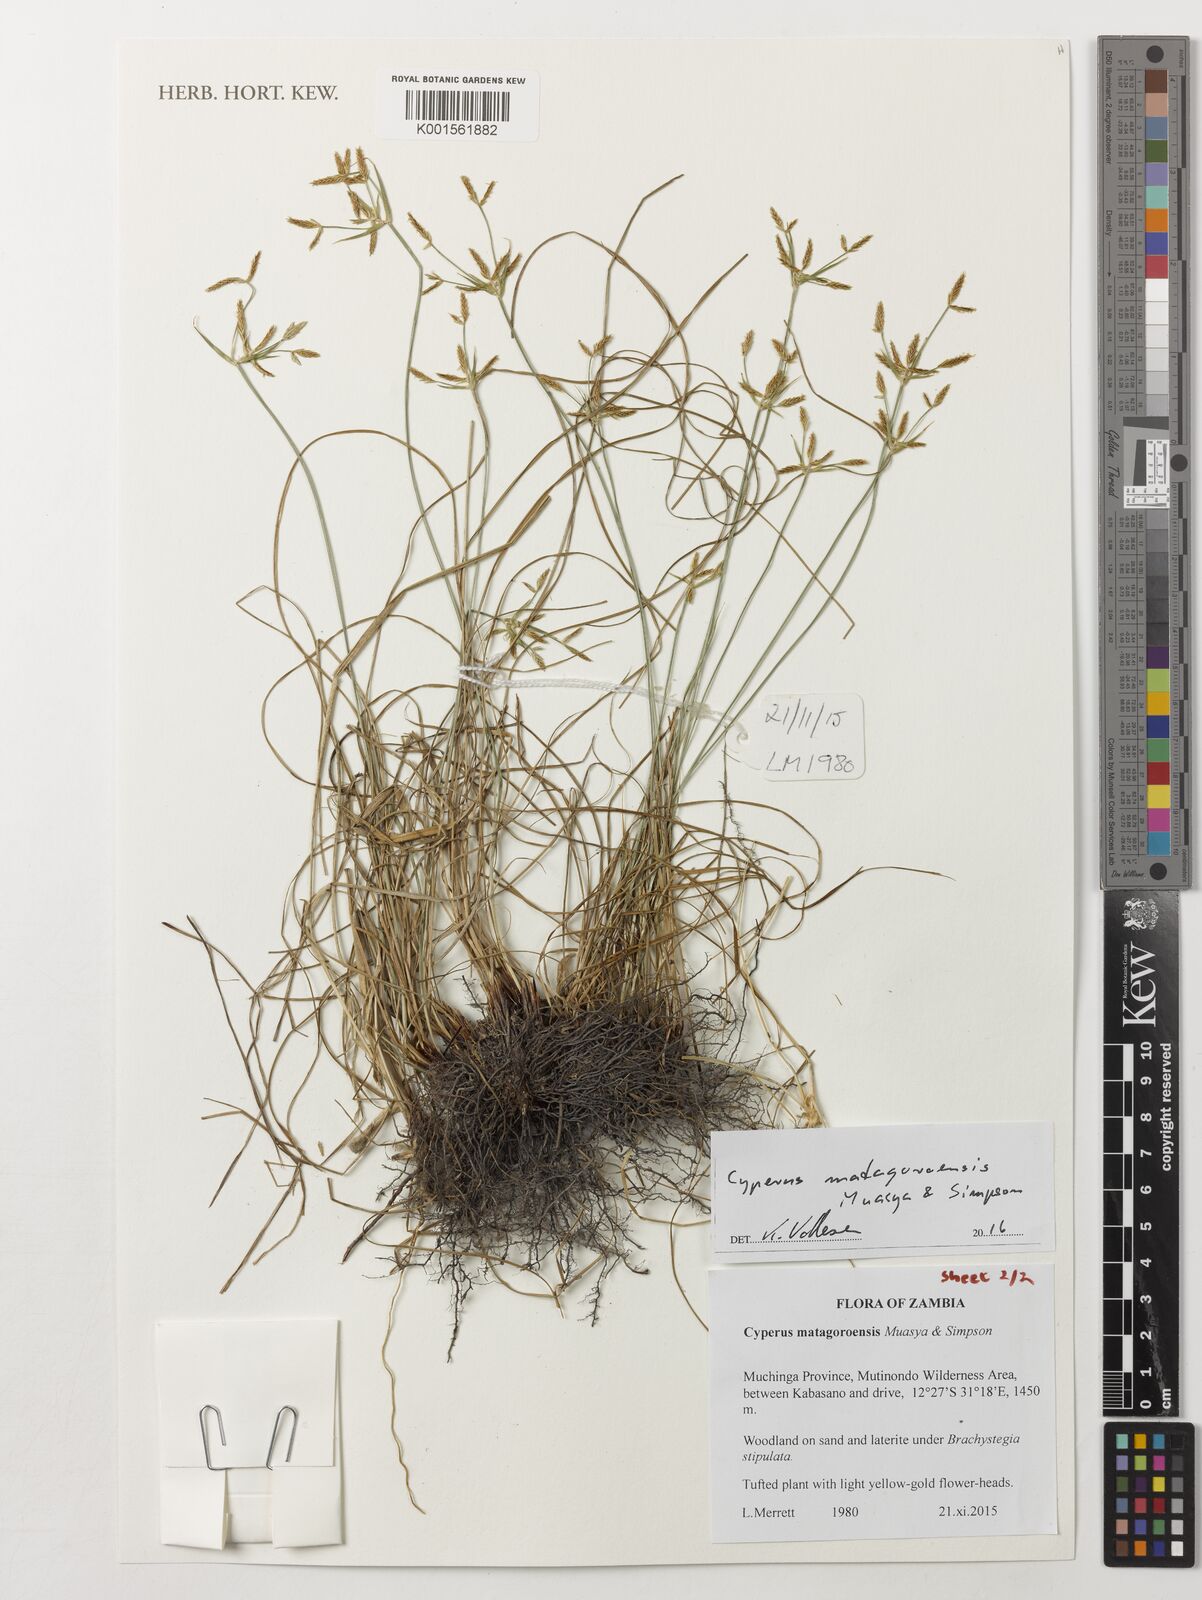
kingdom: Plantae
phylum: Tracheophyta
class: Liliopsida
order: Poales
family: Cyperaceae
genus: Cyperus
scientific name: Cyperus
